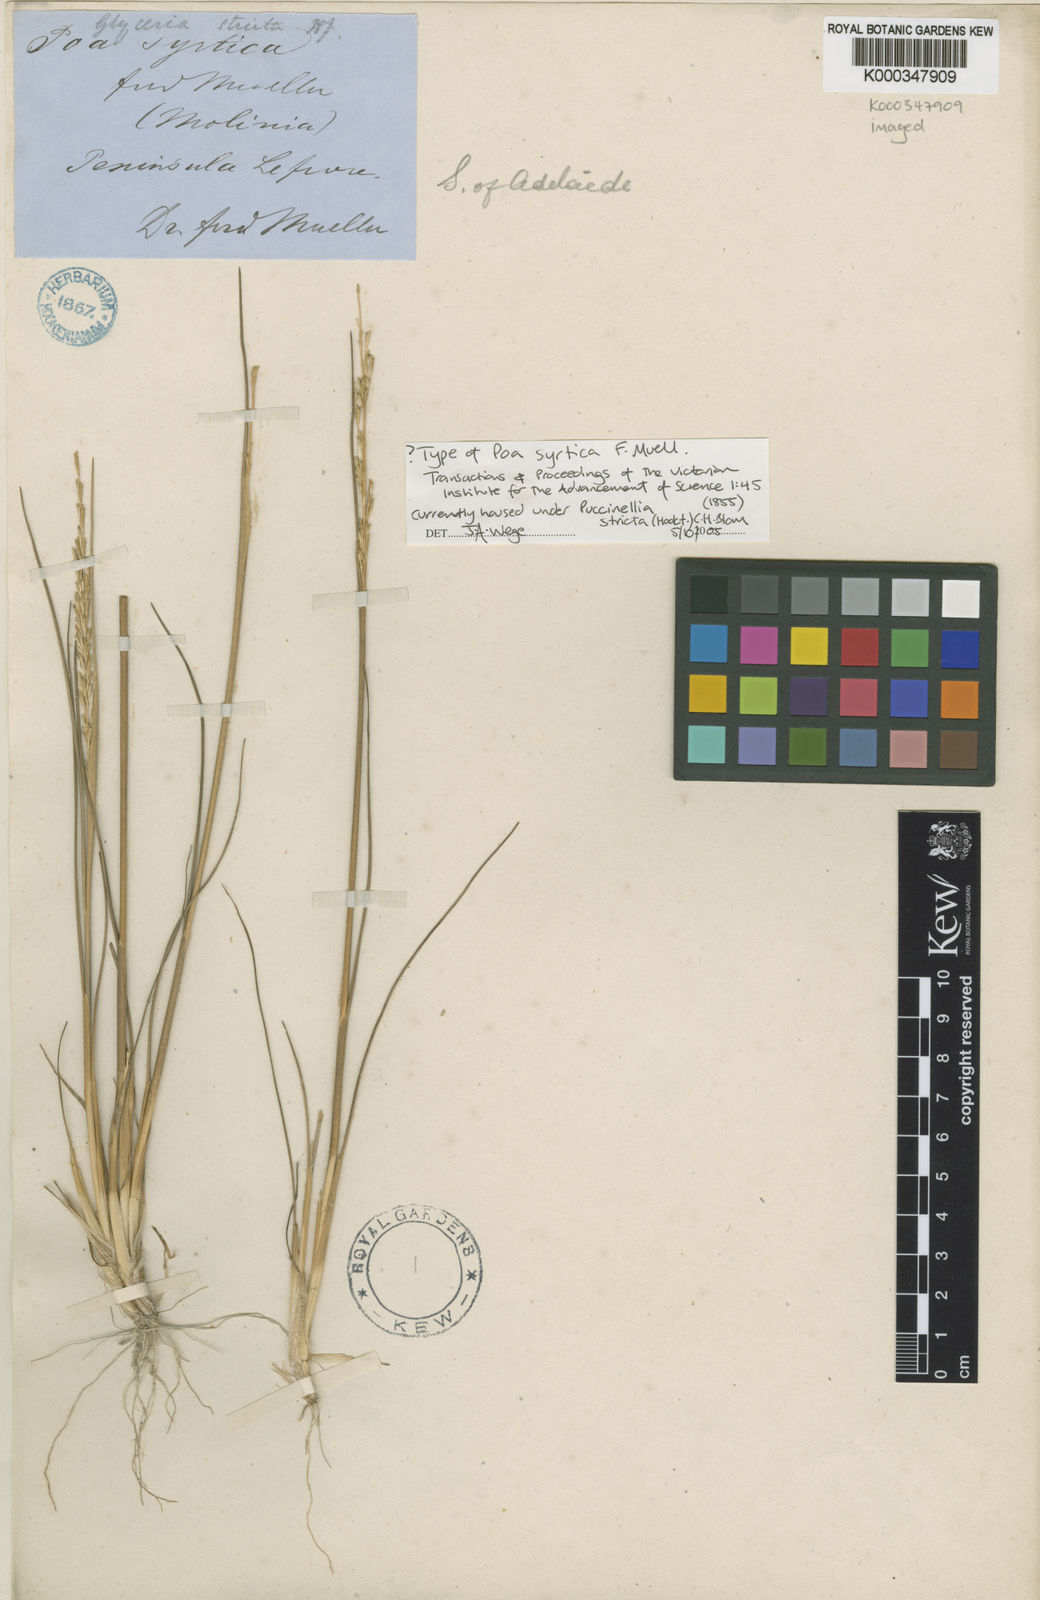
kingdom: Plantae
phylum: Tracheophyta
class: Liliopsida
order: Poales
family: Poaceae
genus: Puccinellia
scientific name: Puccinellia stricta
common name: Australian saltmarsh grass
